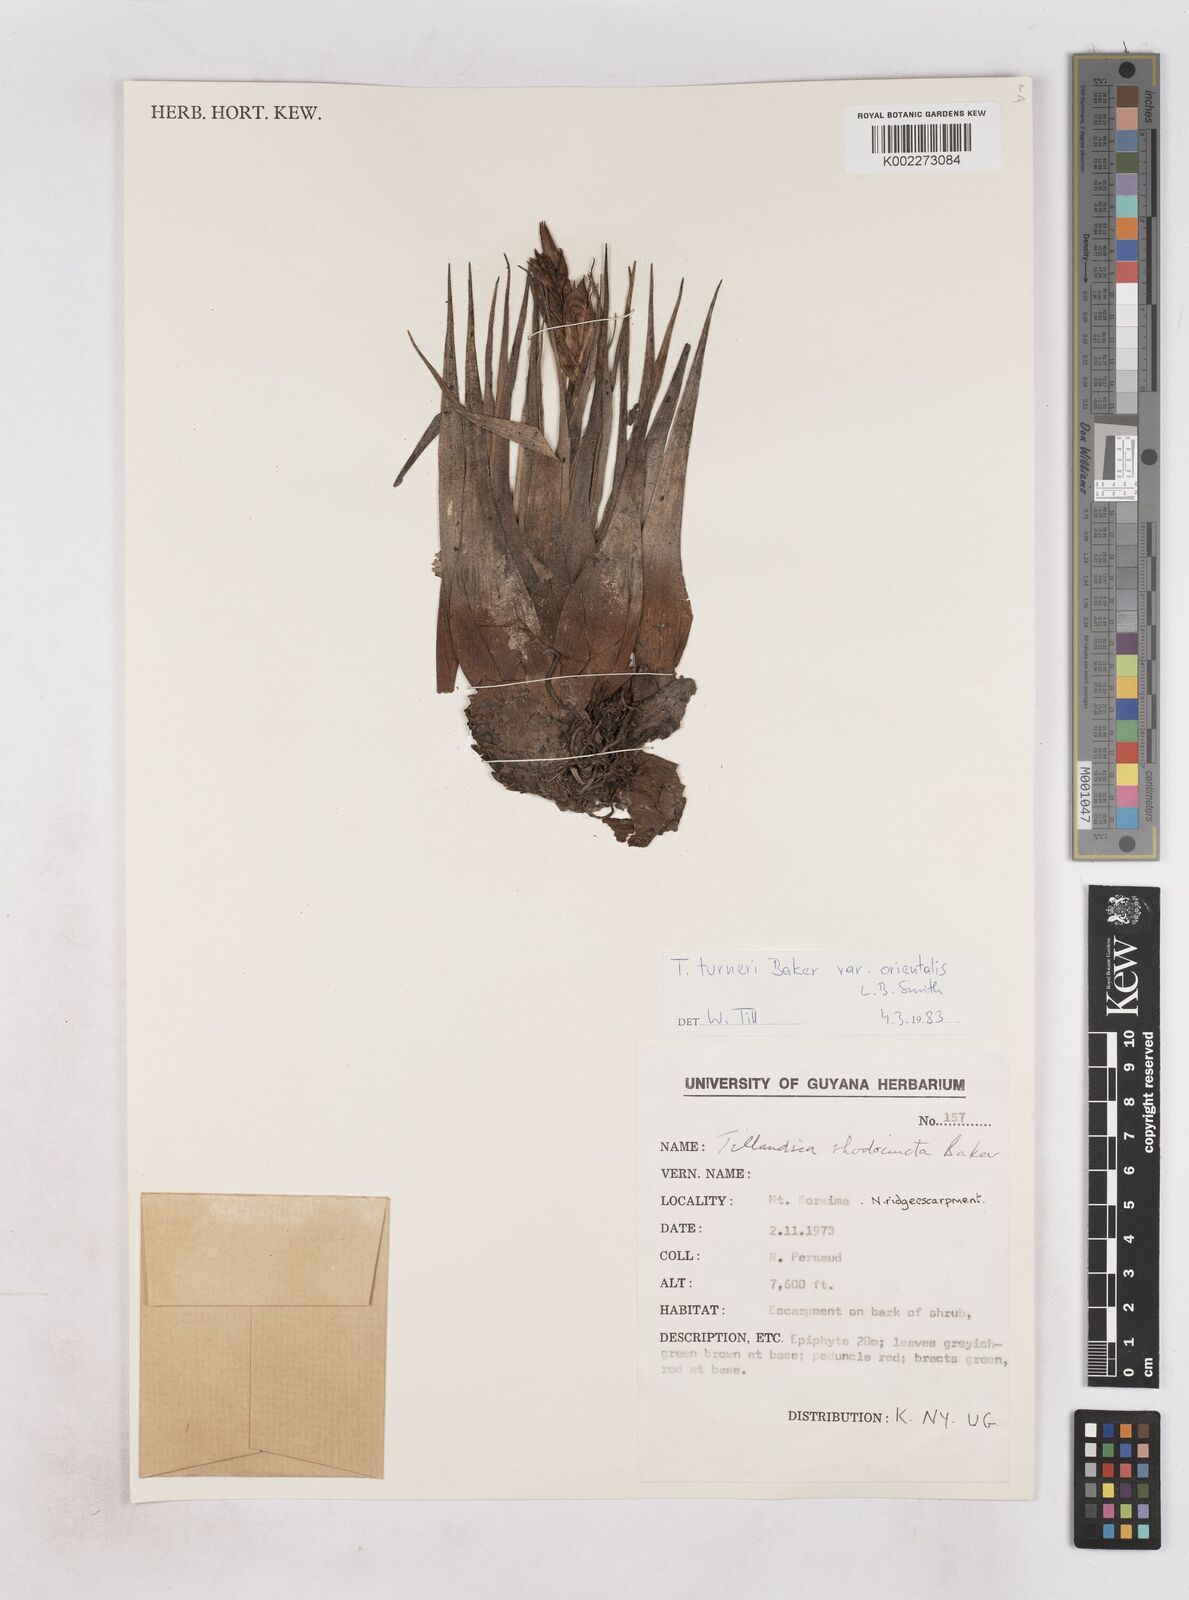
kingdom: Plantae
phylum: Tracheophyta
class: Liliopsida
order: Poales
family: Bromeliaceae
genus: Tillandsia
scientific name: Tillandsia turneri
